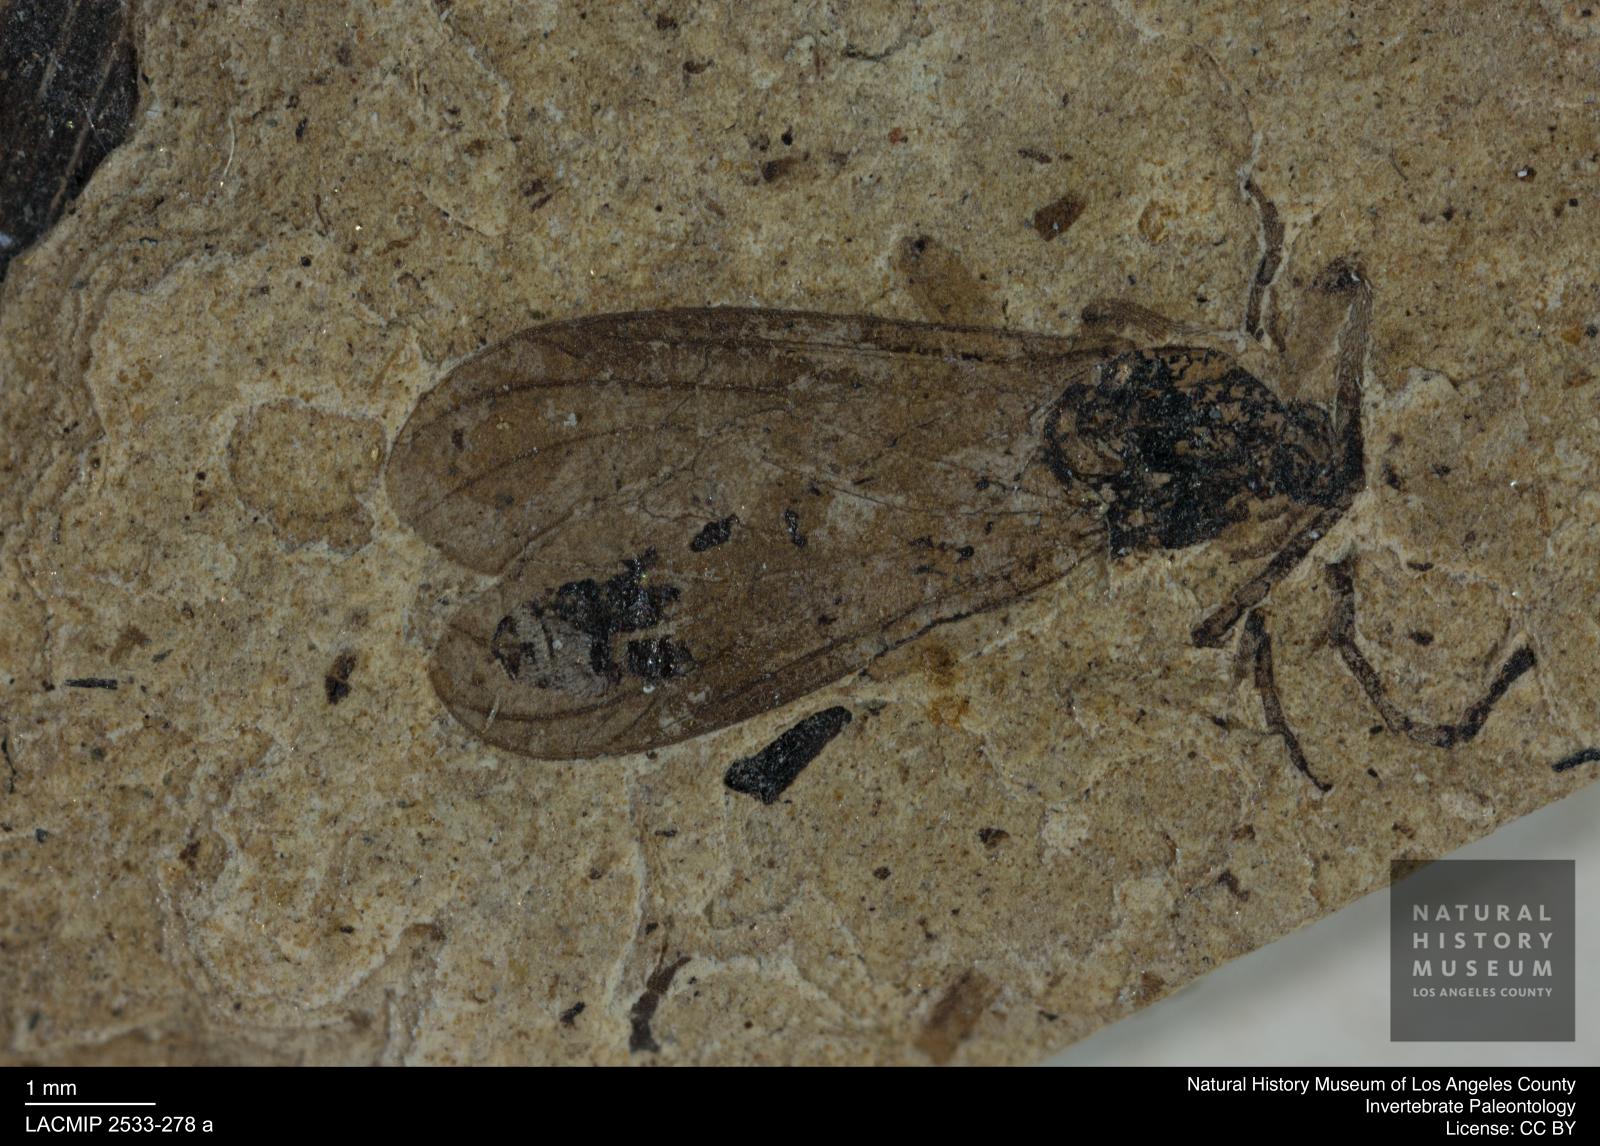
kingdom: Animalia
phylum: Arthropoda
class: Insecta
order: Diptera
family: Bibionidae
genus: Plecia
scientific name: Plecia pinguis
